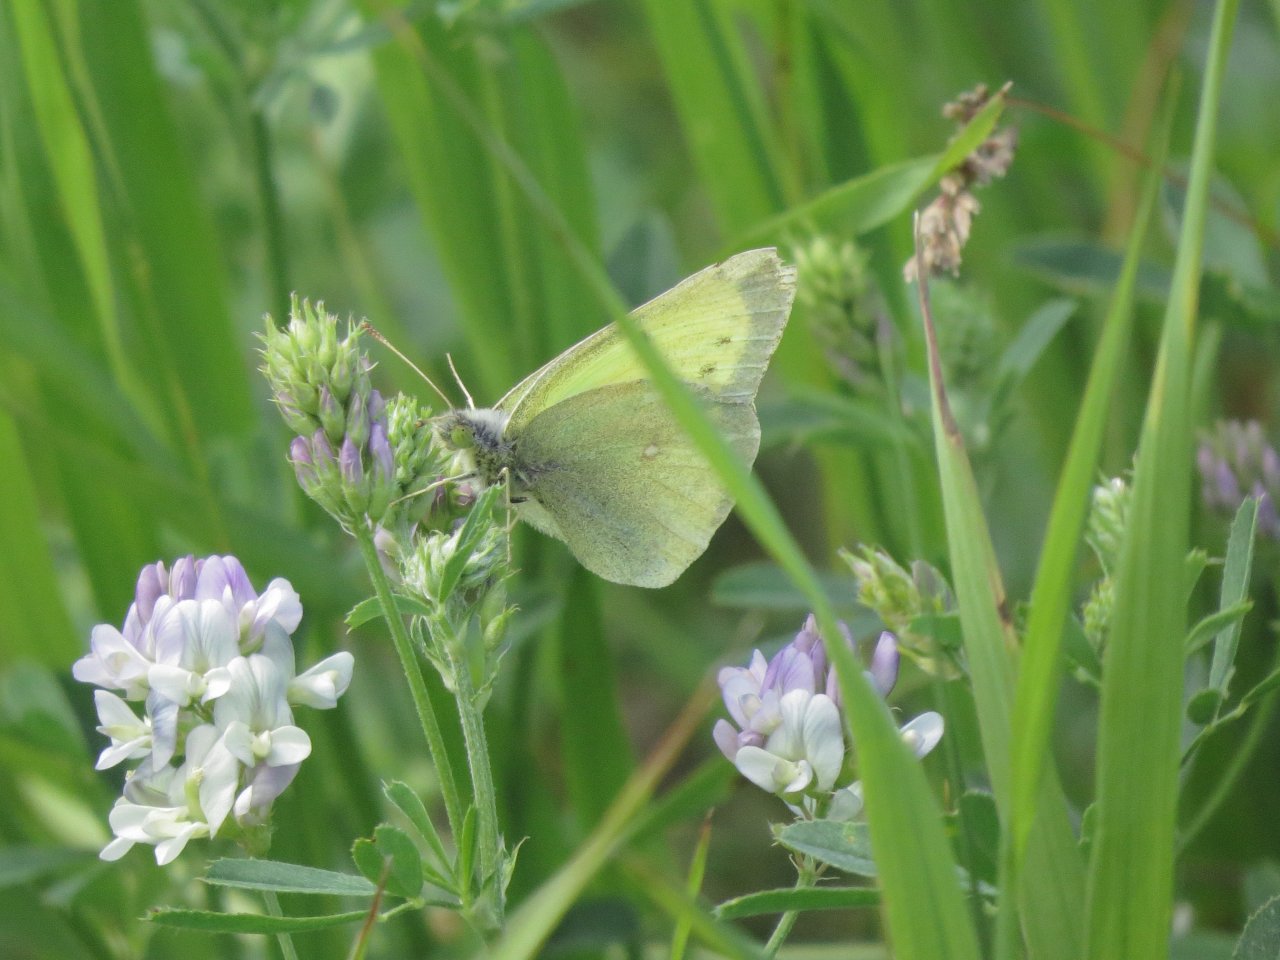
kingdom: Animalia
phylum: Arthropoda
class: Insecta
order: Lepidoptera
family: Pieridae
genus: Colias
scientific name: Colias philodice
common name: Clouded Sulphur
